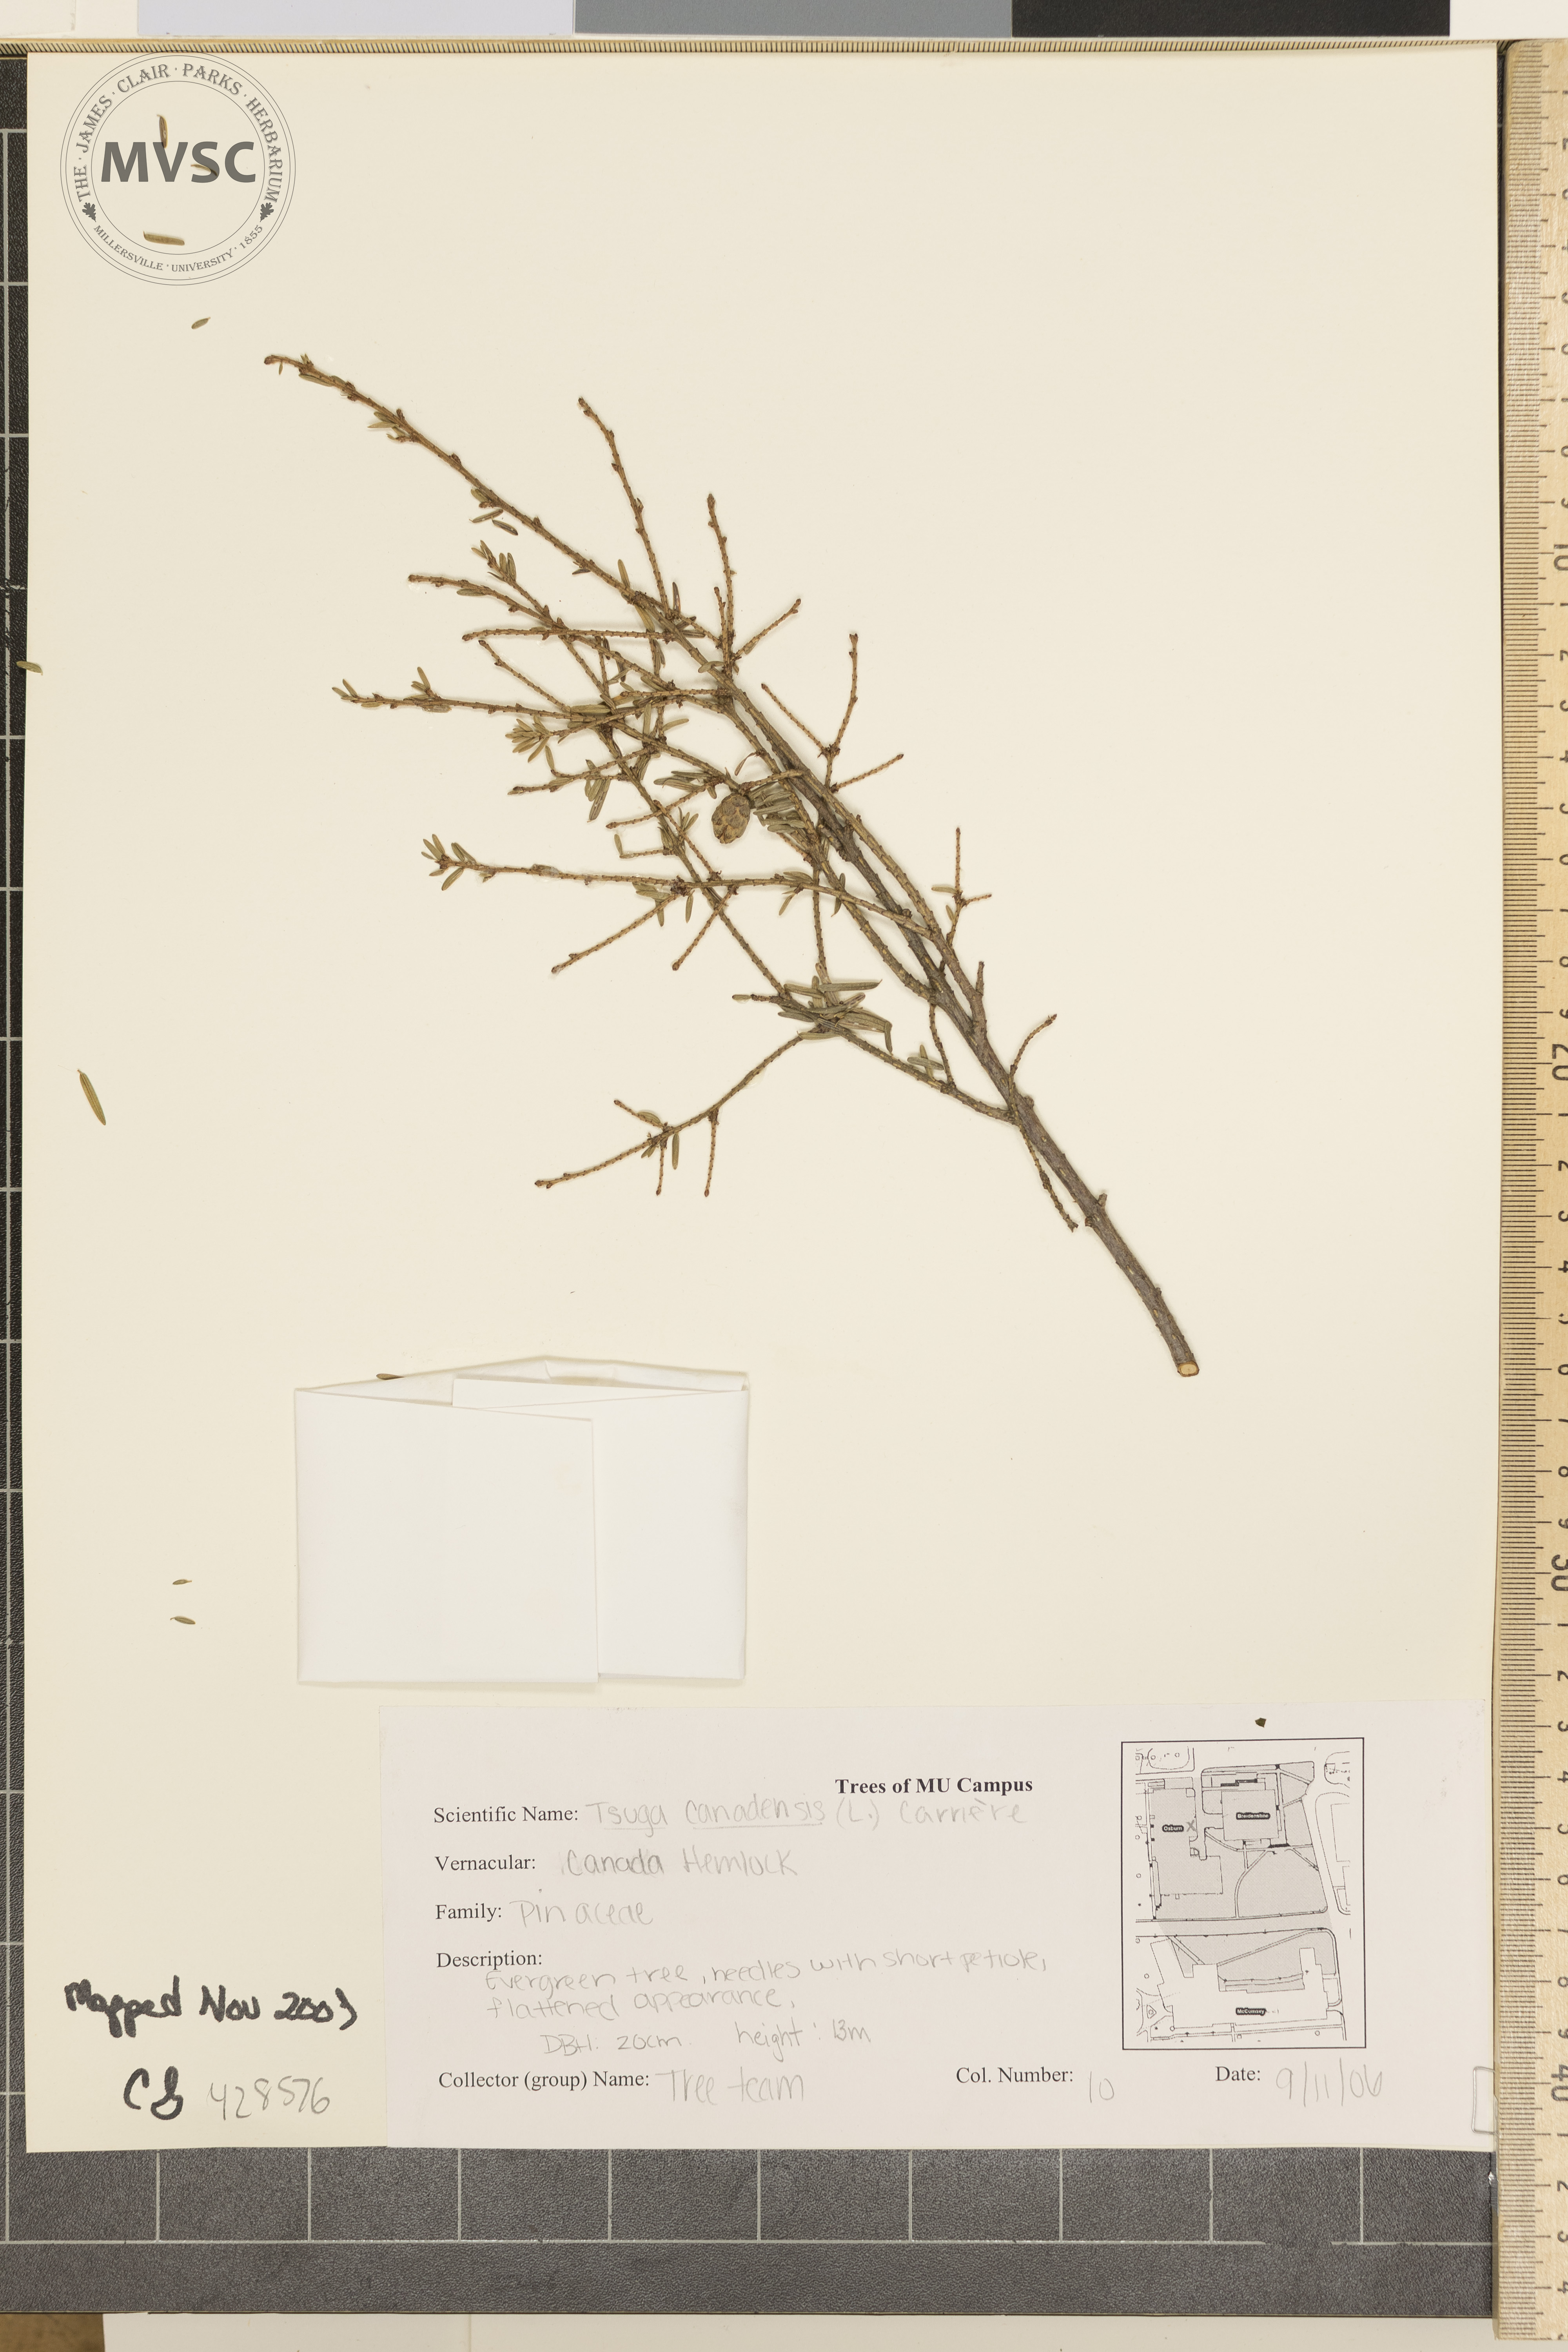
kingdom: Plantae
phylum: Tracheophyta
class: Pinopsida
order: Pinales
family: Pinaceae
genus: Tsuga
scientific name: Tsuga canadensis
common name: Canadian Hemlock
